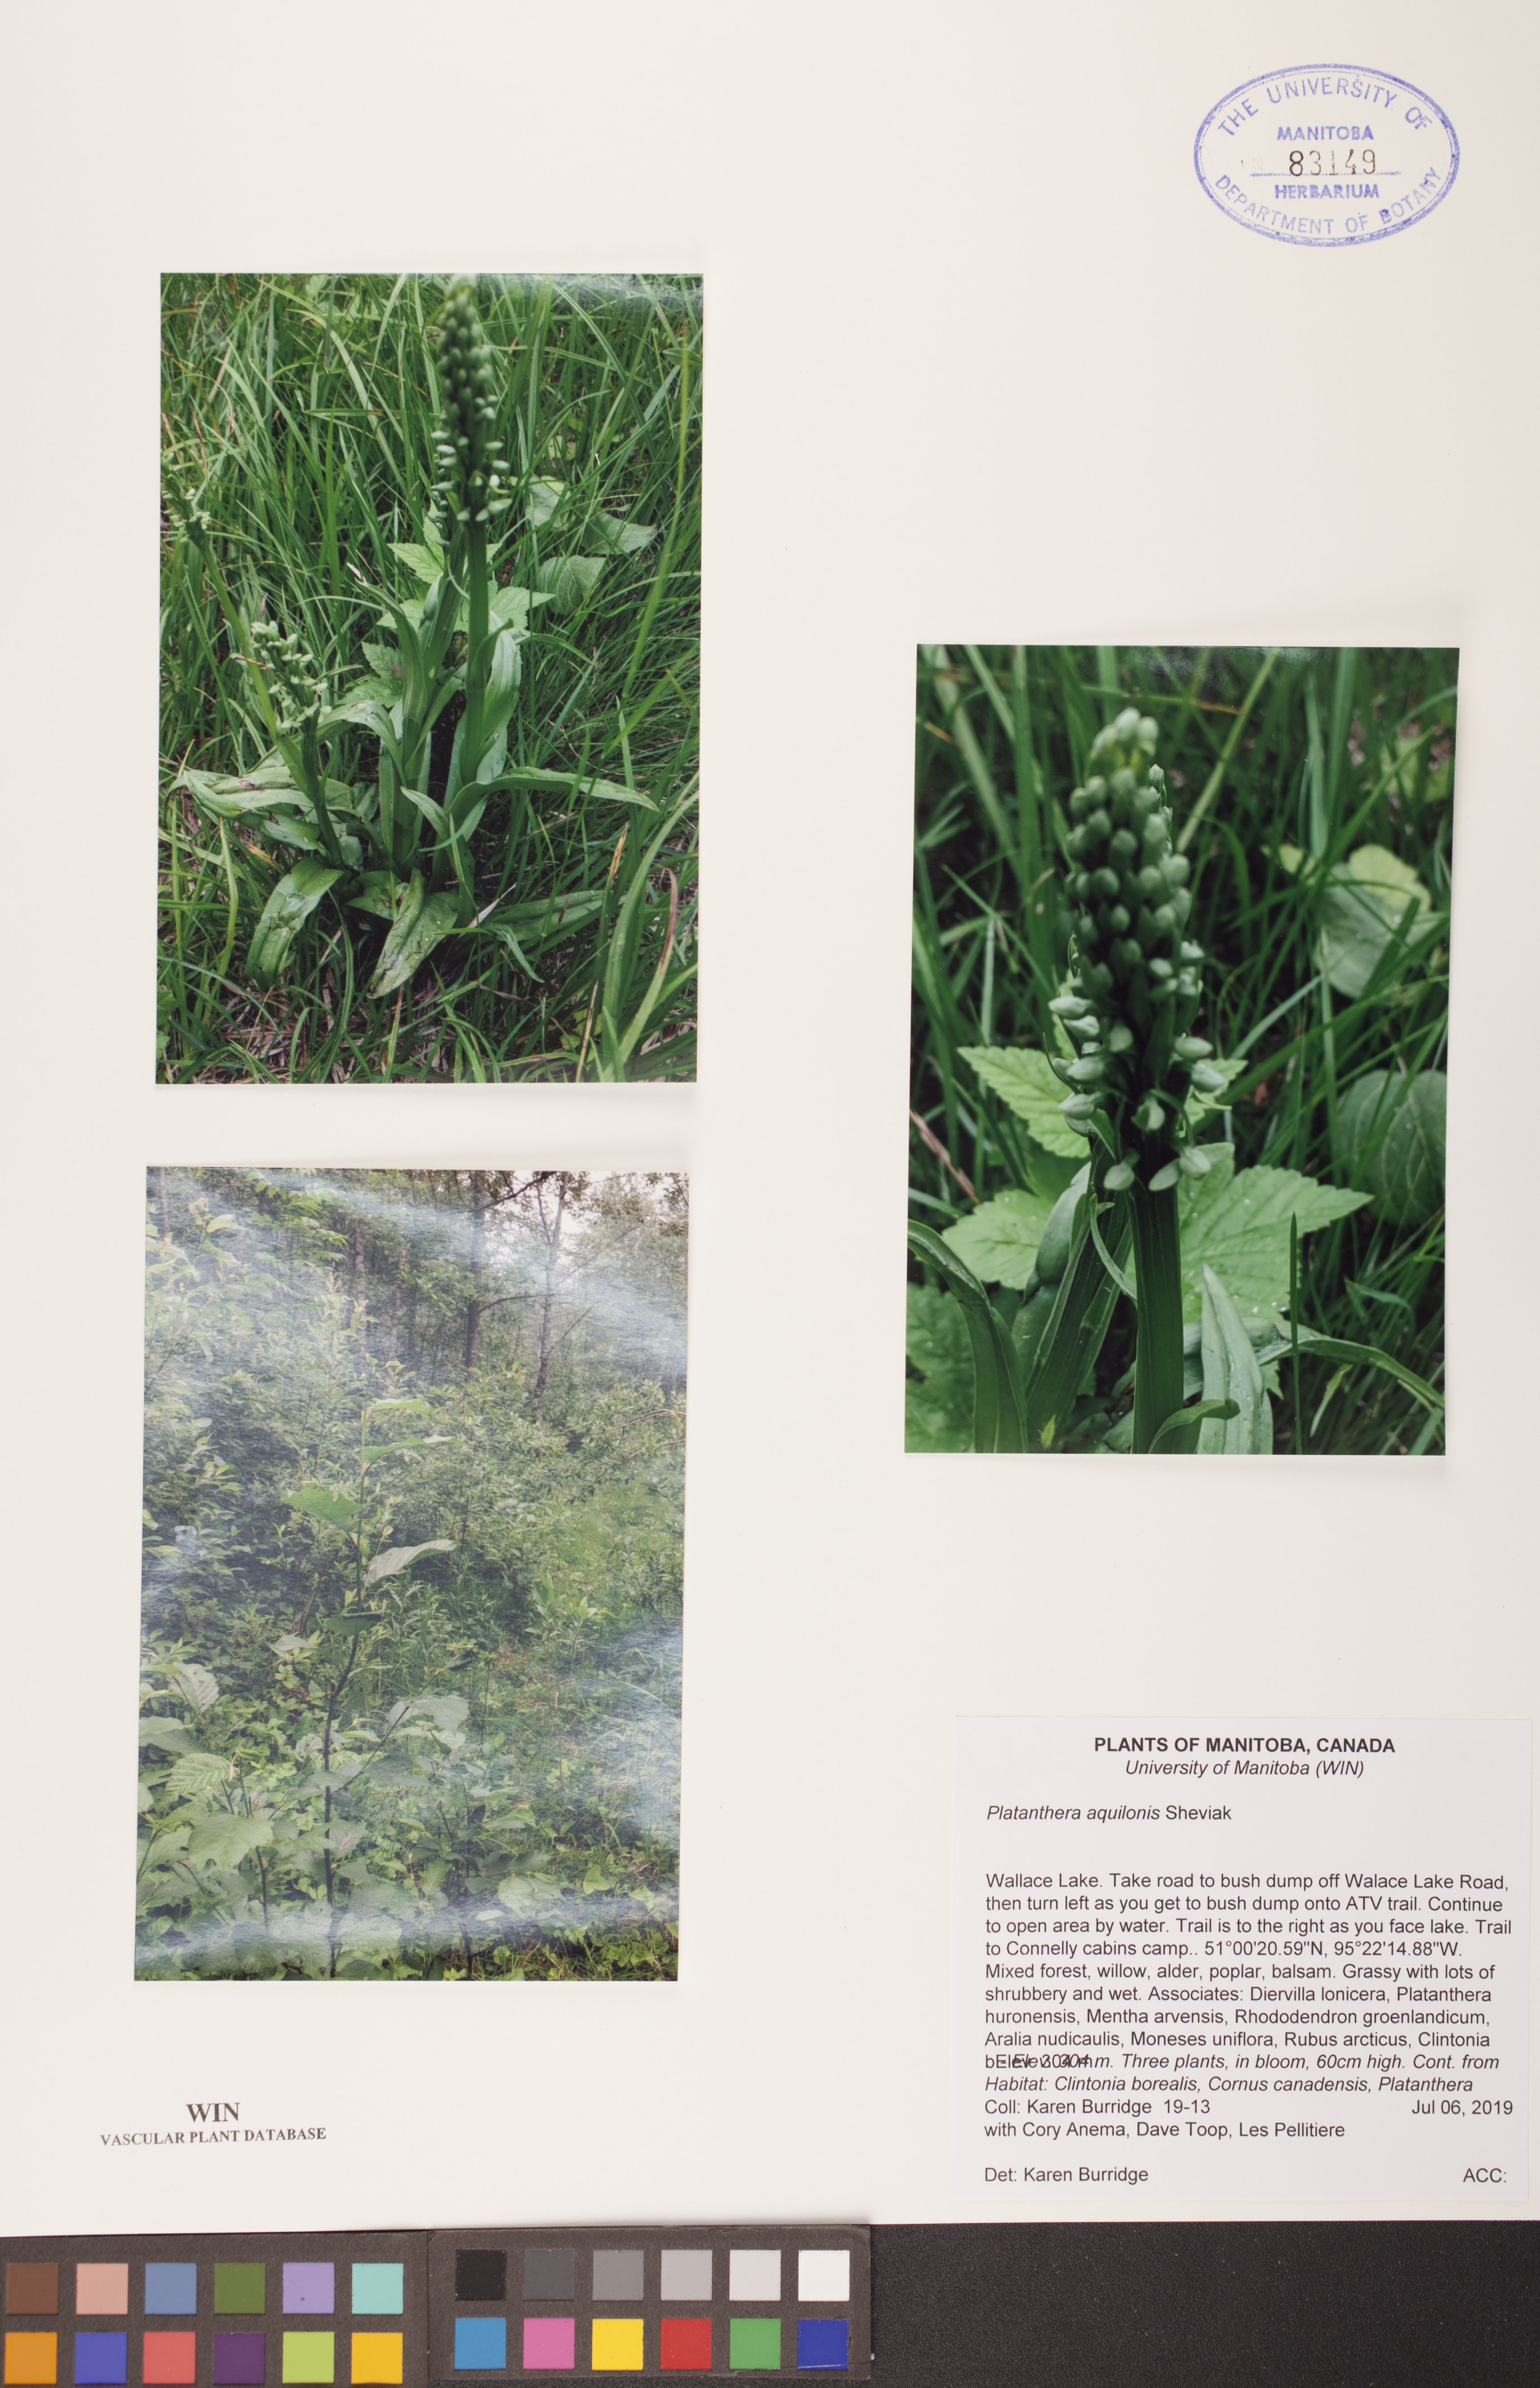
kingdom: Plantae
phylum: Tracheophyta
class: Liliopsida
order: Asparagales
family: Orchidaceae
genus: Platanthera
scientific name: Platanthera aquilonis
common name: Northern green orchid
